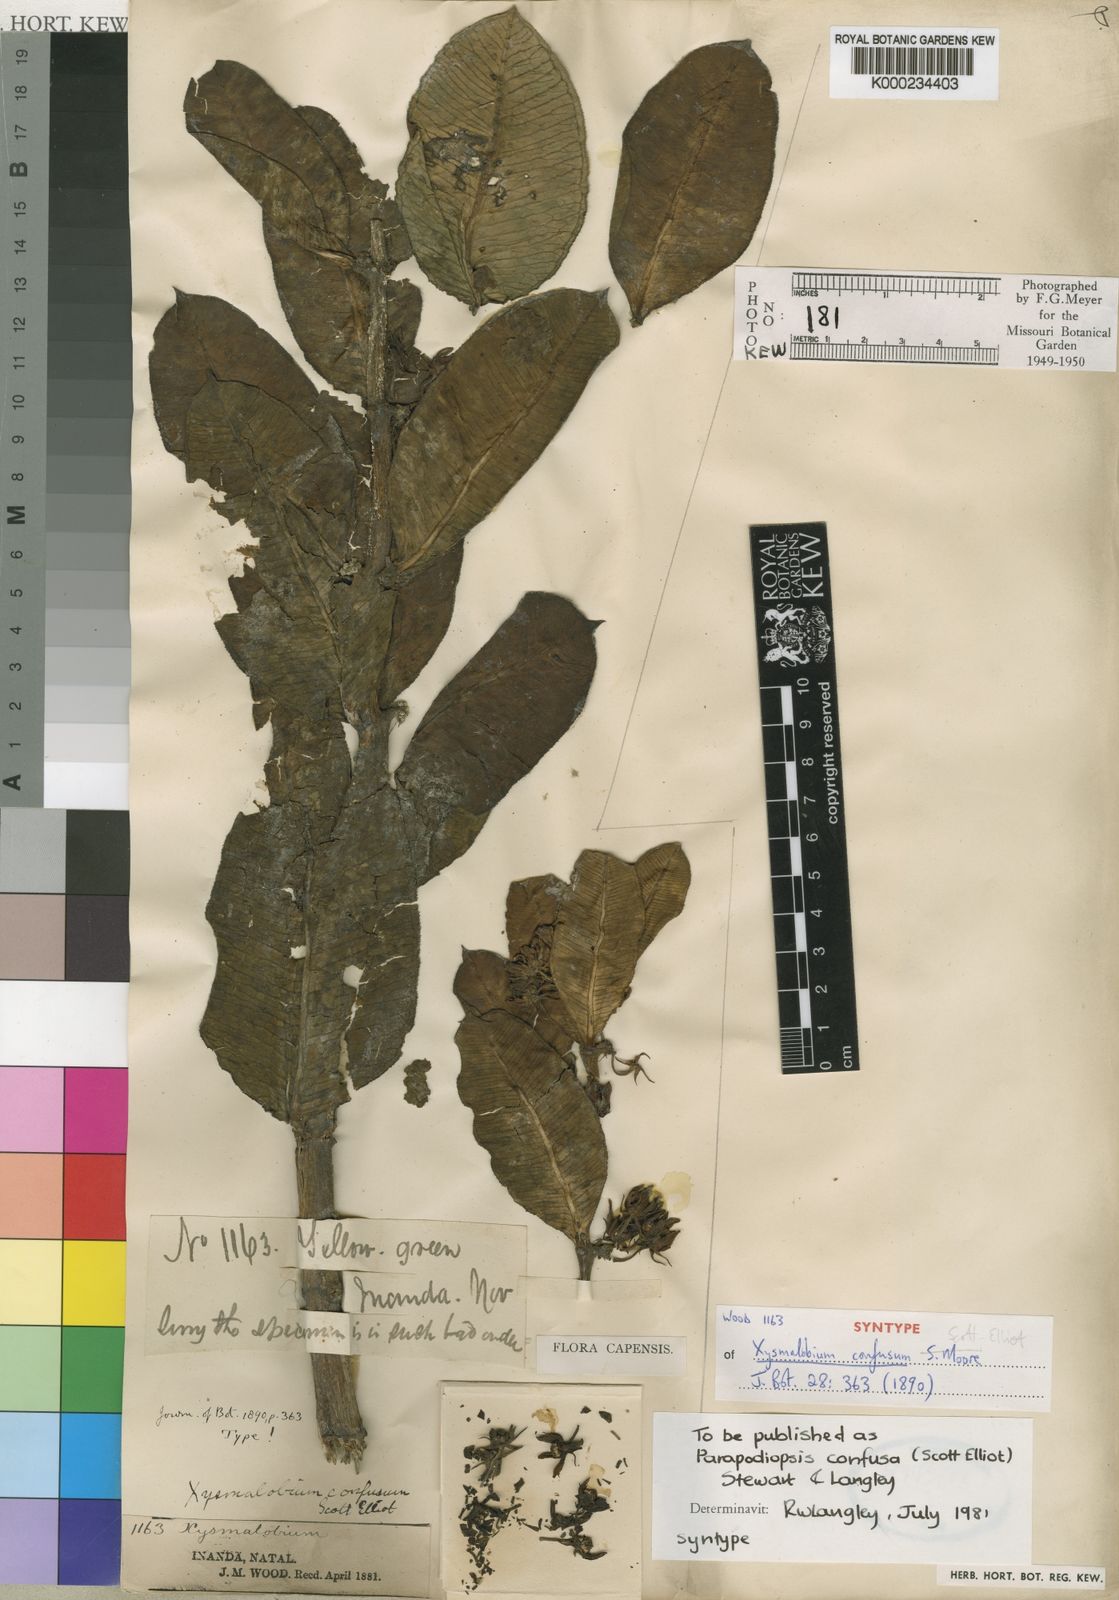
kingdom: Plantae
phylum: Tracheophyta
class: Magnoliopsida
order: Gentianales
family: Asclepiadaceae
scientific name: Asclepiadaceae
